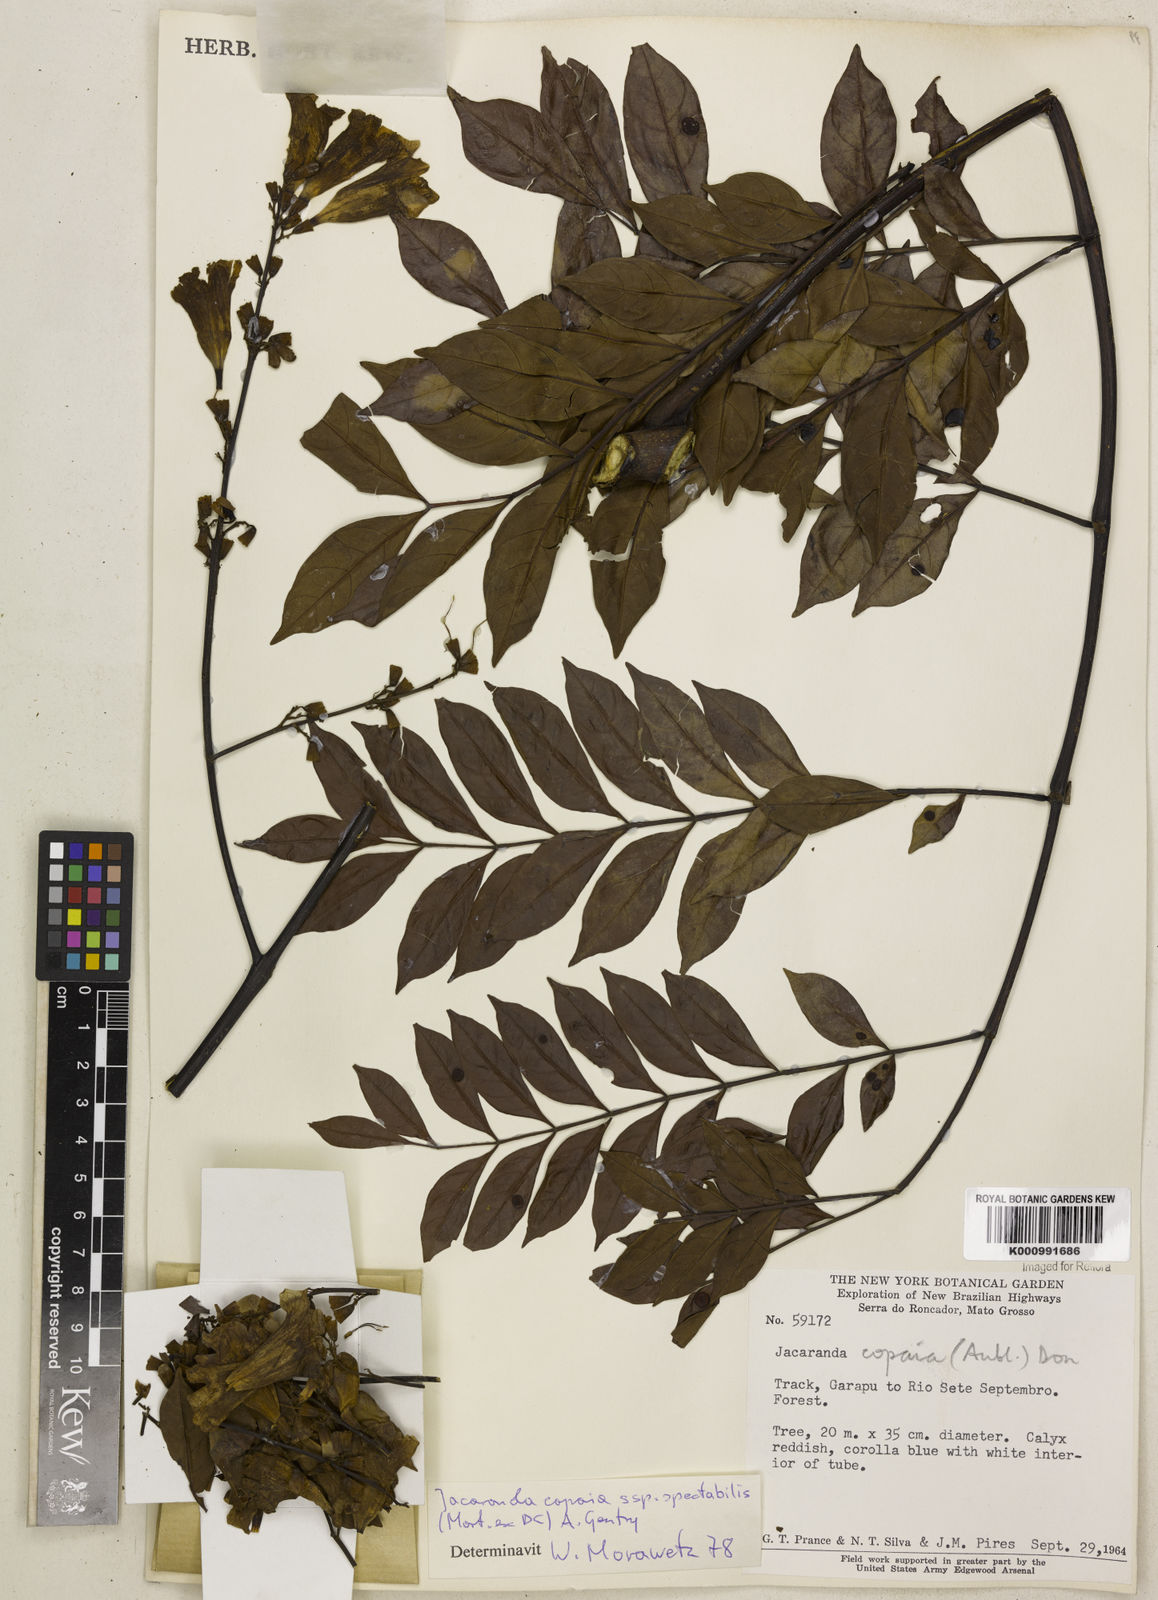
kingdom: Plantae
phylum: Tracheophyta
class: Magnoliopsida
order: Lamiales
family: Bignoniaceae
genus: Jacaranda
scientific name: Jacaranda
